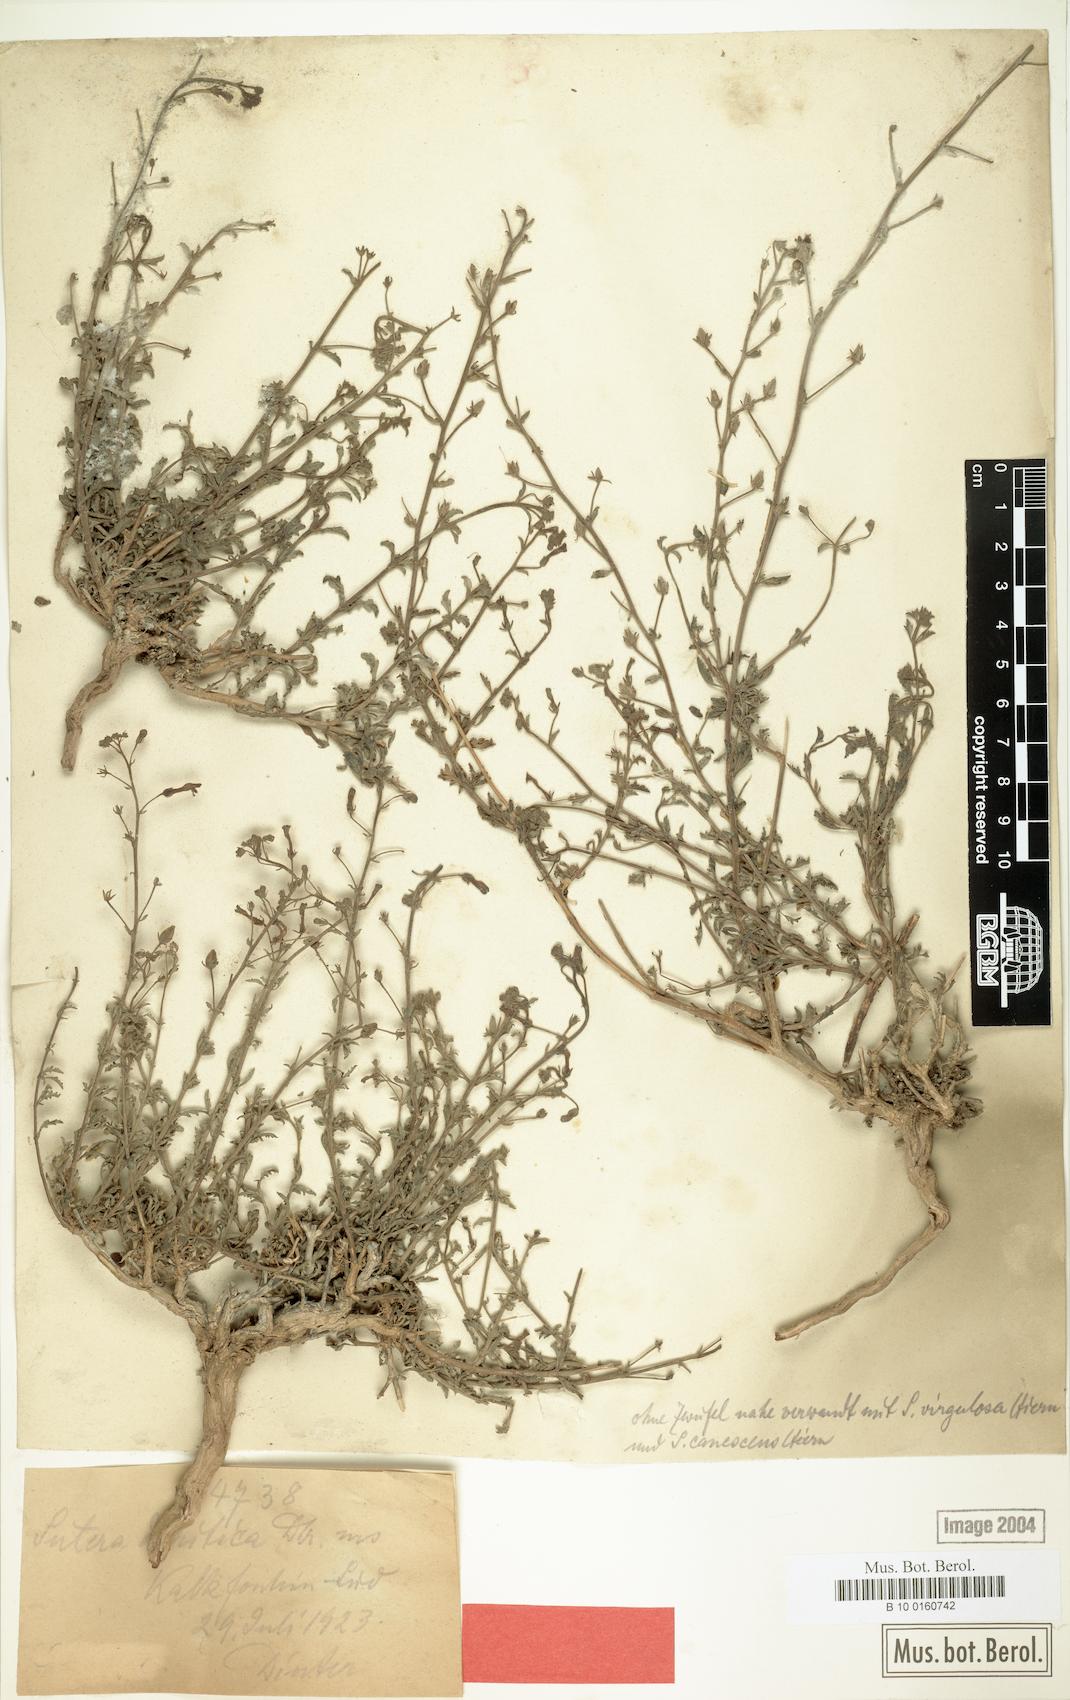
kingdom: Plantae
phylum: Tracheophyta
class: Magnoliopsida
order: Lamiales
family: Scrophulariaceae
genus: Jamesbrittenia
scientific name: Jamesbrittenia canescens
